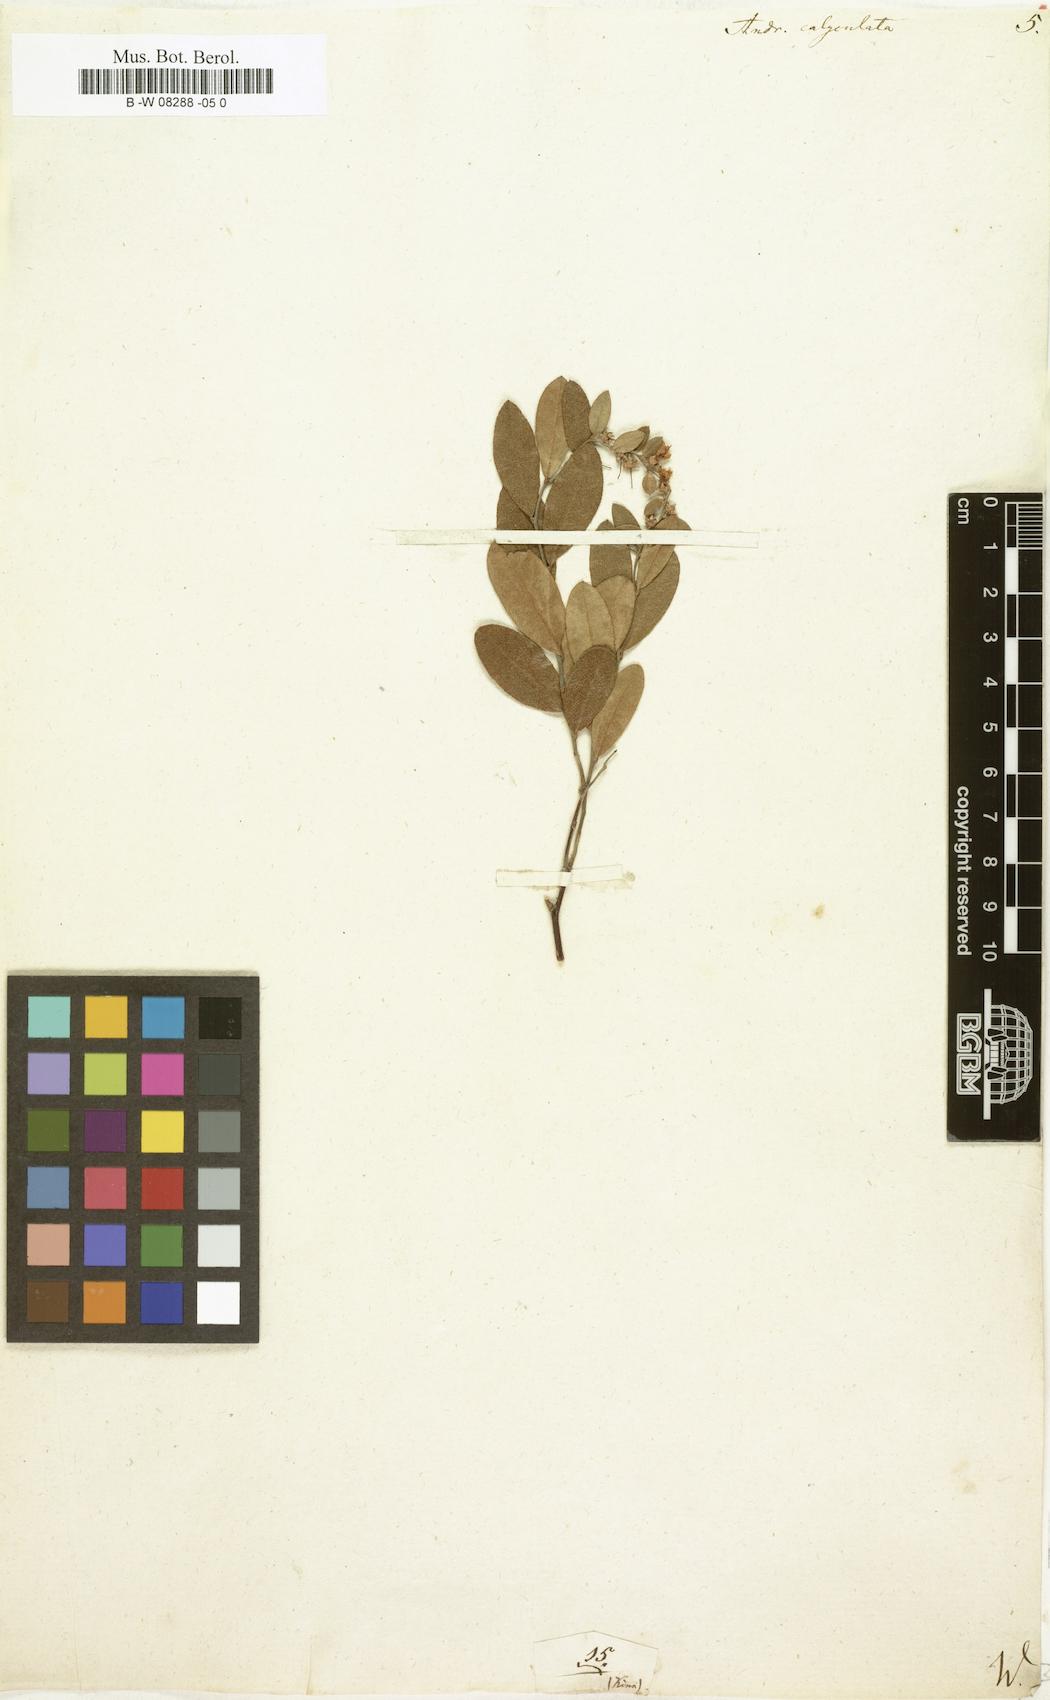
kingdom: Plantae
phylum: Tracheophyta
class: Magnoliopsida
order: Ericales
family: Ericaceae
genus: Chamaedaphne
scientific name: Chamaedaphne calyculata
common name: Leatherleaf
